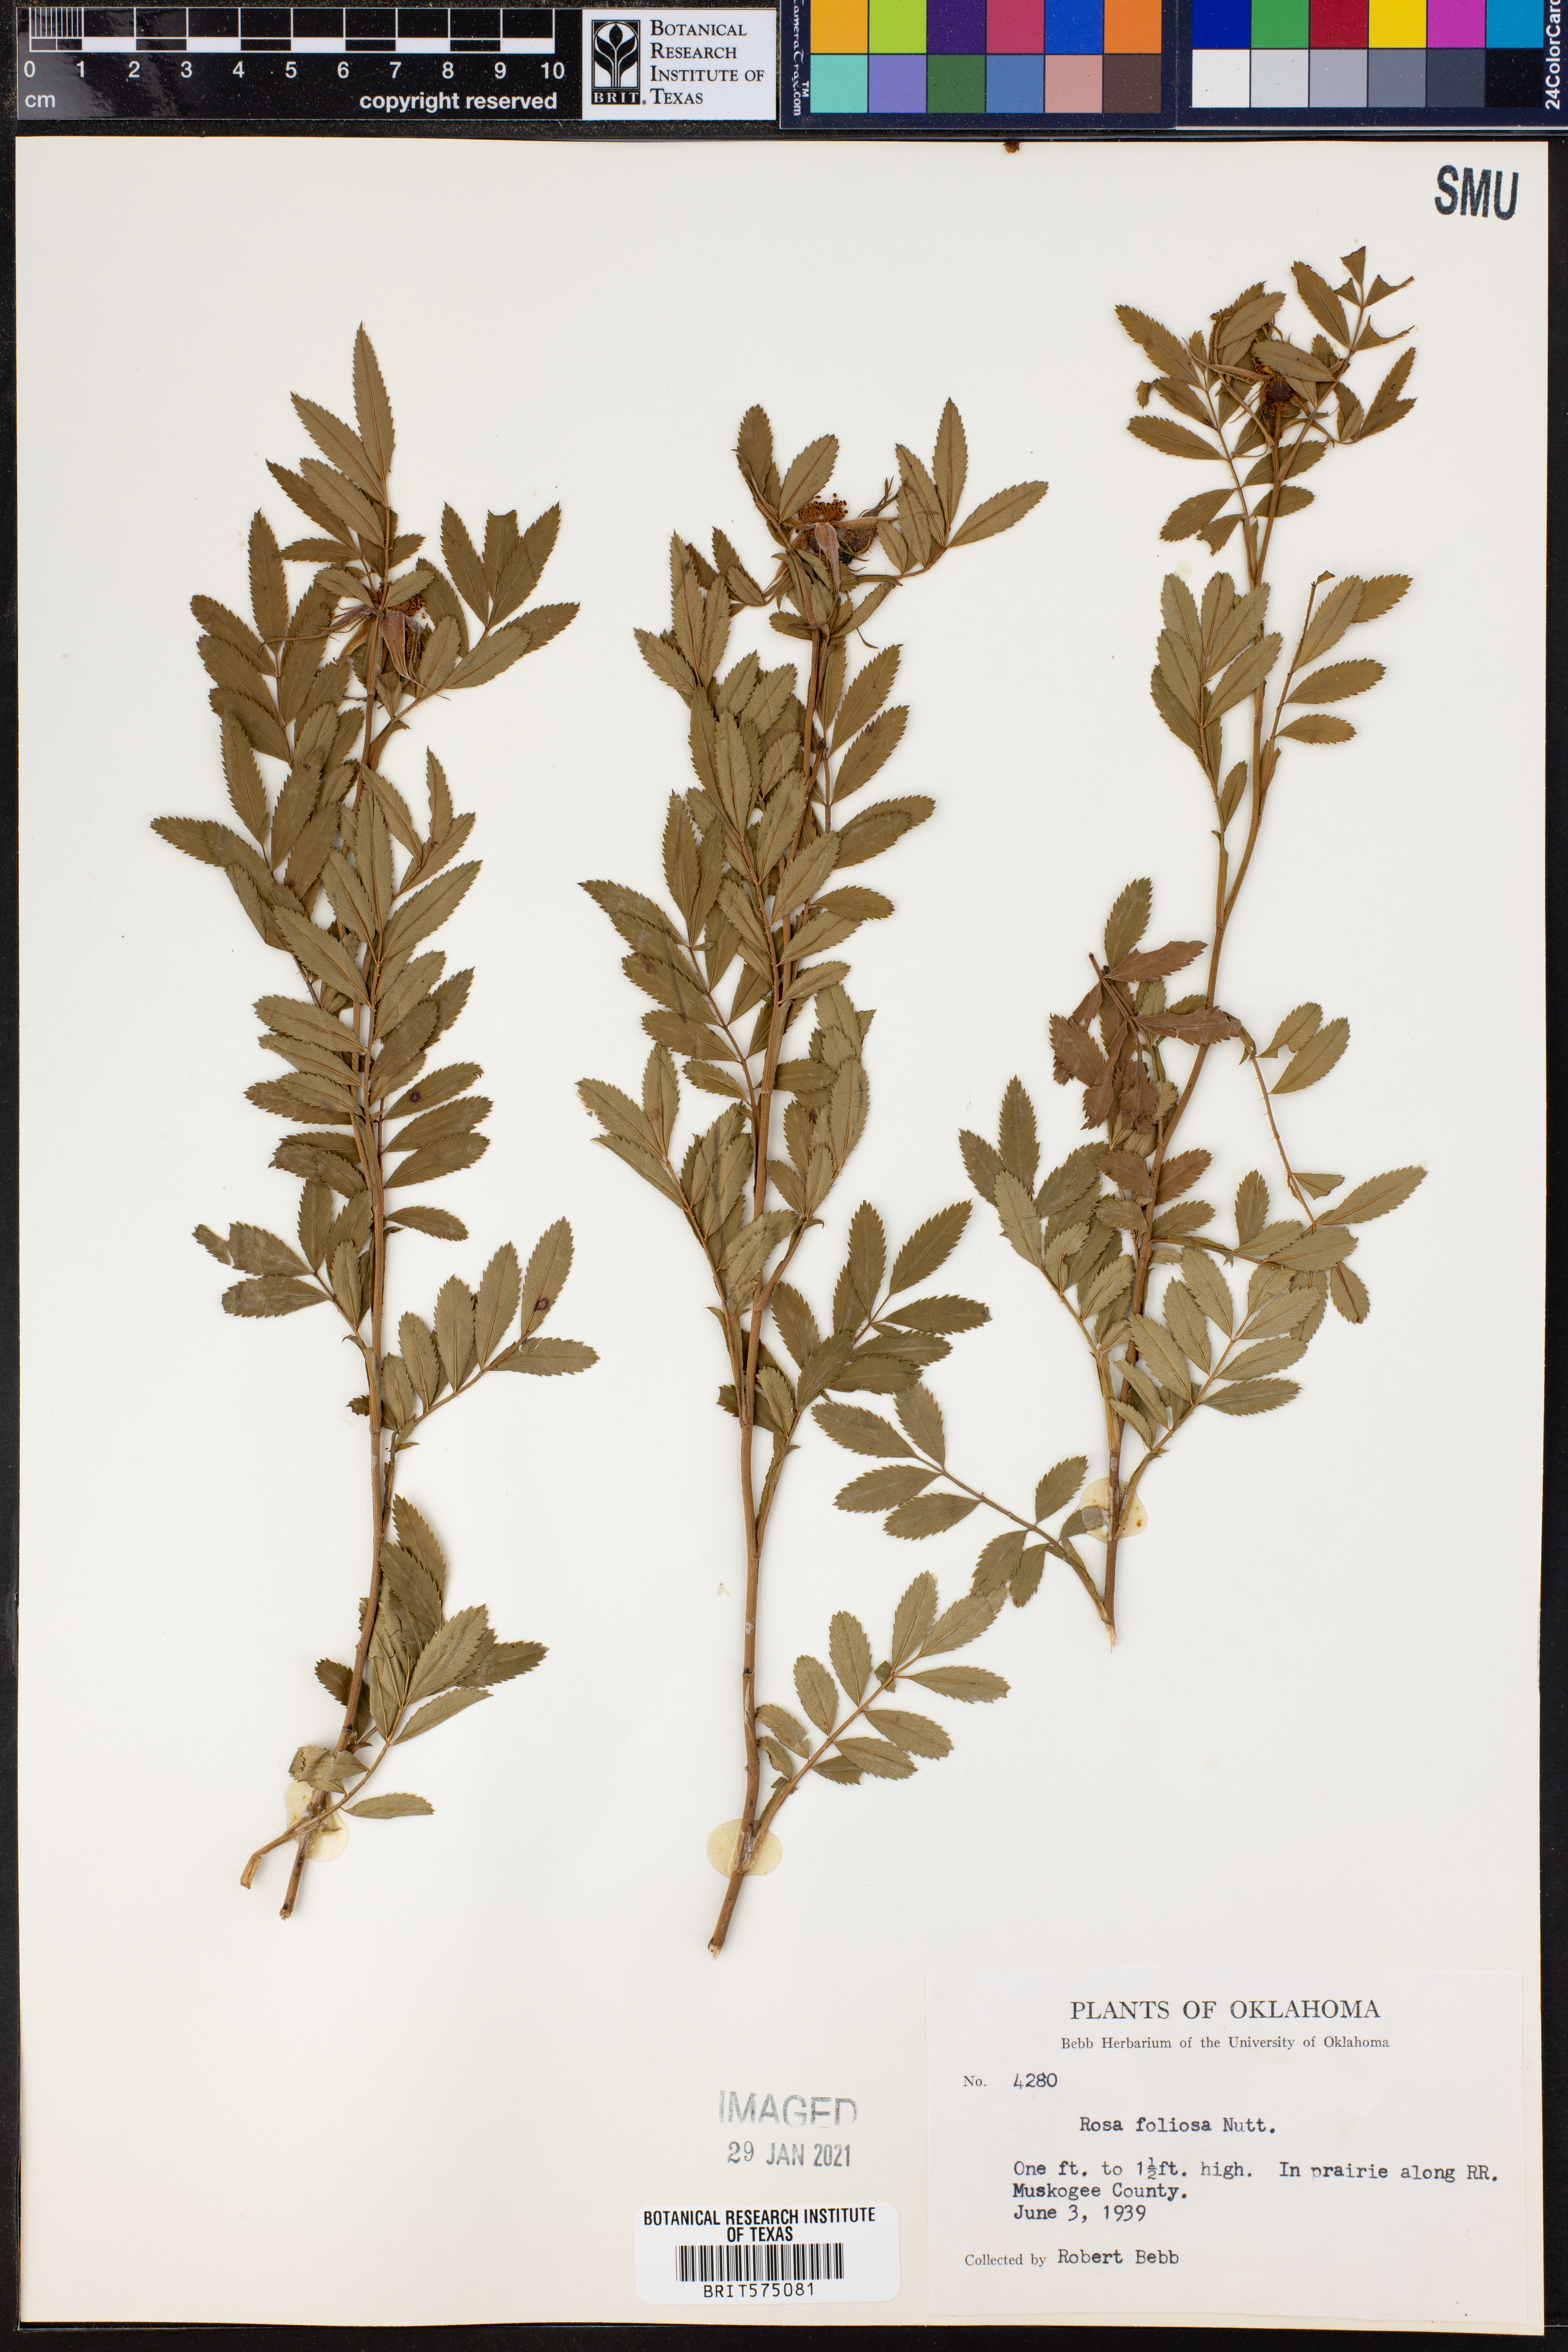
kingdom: Plantae
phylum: Tracheophyta
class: Magnoliopsida
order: Rosales
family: Rosaceae
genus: Rosa
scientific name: Rosa foliolosa
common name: White prairie rose
